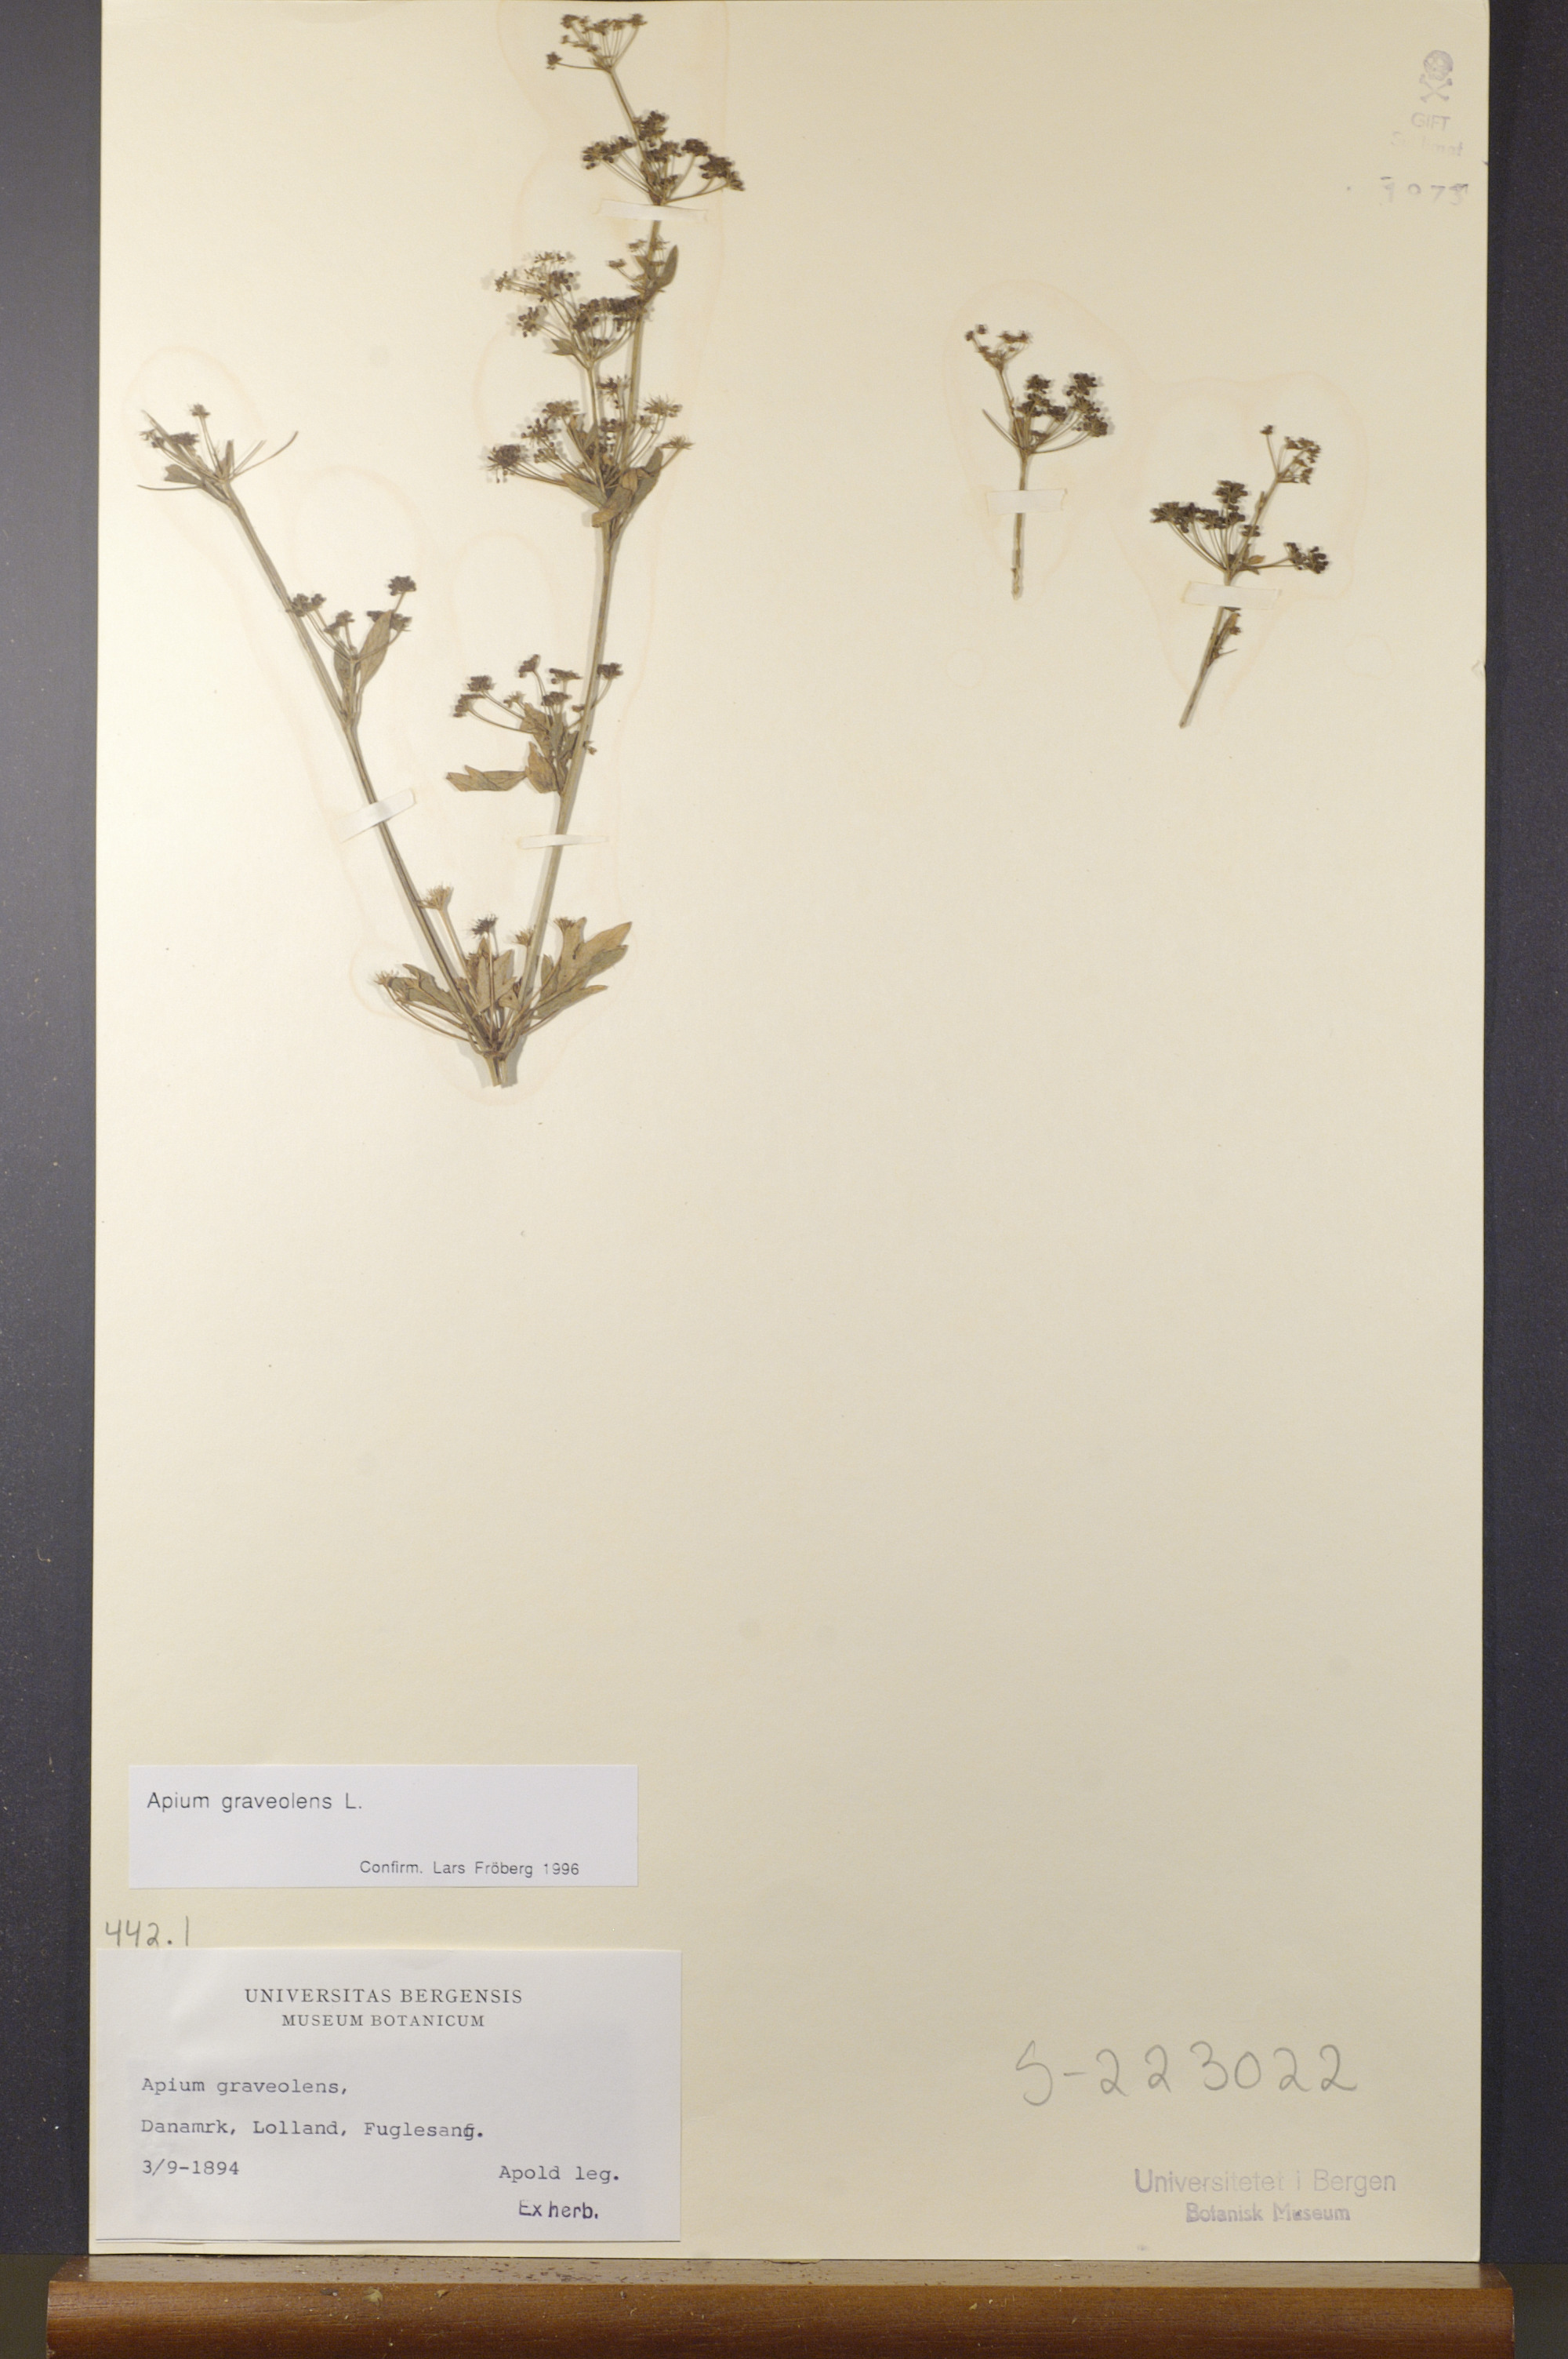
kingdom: Plantae
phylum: Tracheophyta
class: Magnoliopsida
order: Apiales
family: Apiaceae
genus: Apium
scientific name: Apium graveolens
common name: Wild celery
